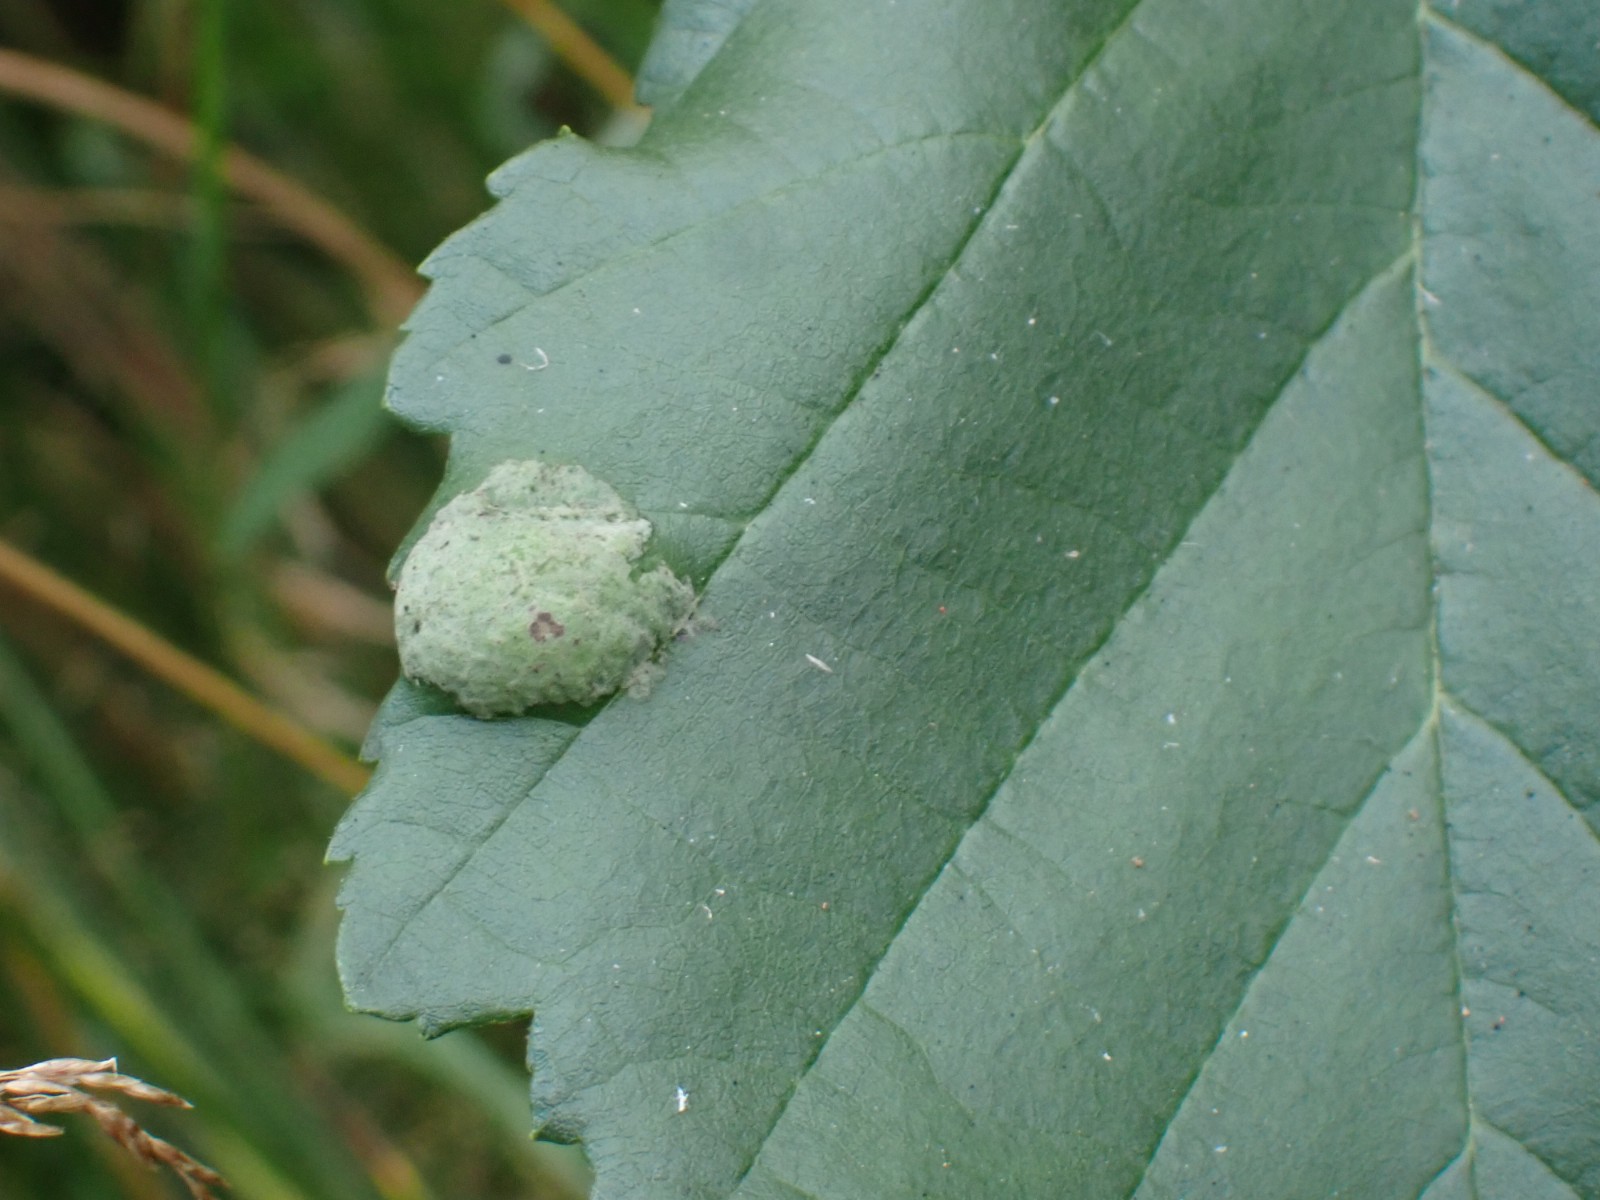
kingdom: Fungi
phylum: Ascomycota
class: Taphrinomycetes
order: Taphrinales
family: Taphrinaceae
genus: Taphrina
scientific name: Taphrina tosquinetii
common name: Alder wrinkle
